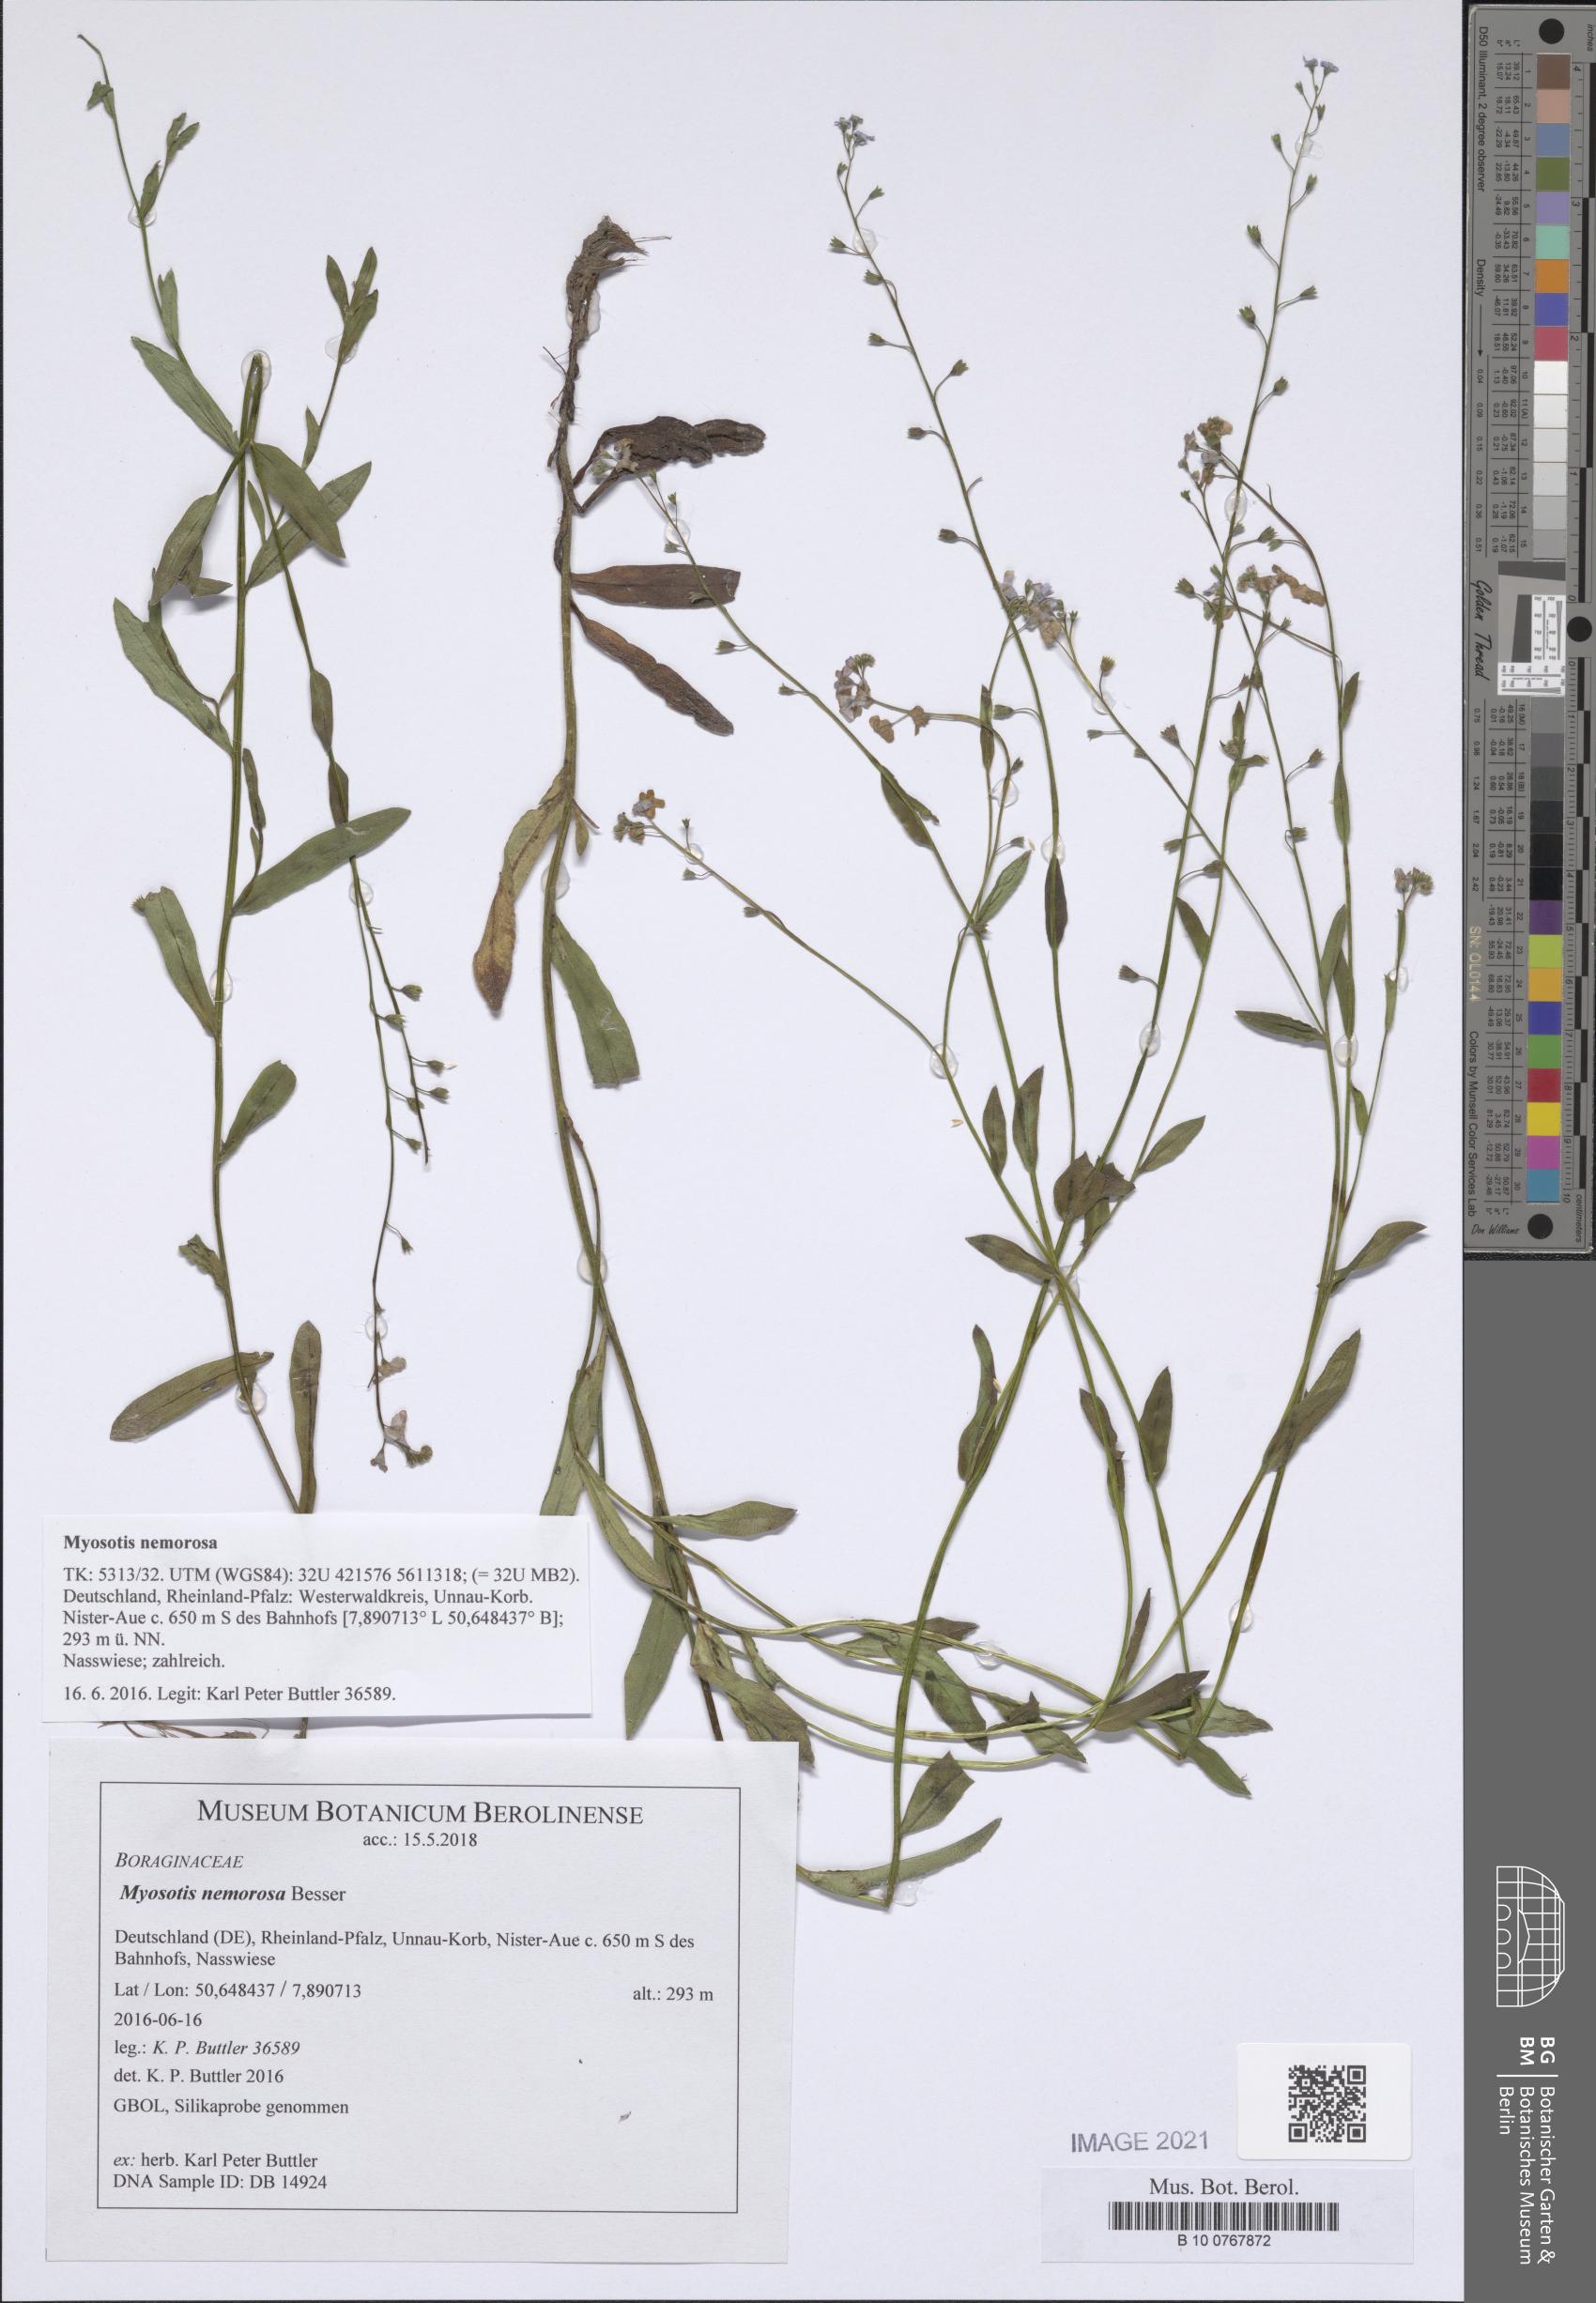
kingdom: Plantae
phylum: Tracheophyta
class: Magnoliopsida
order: Boraginales
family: Boraginaceae
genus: Myosotis
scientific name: Myosotis nemorosa
